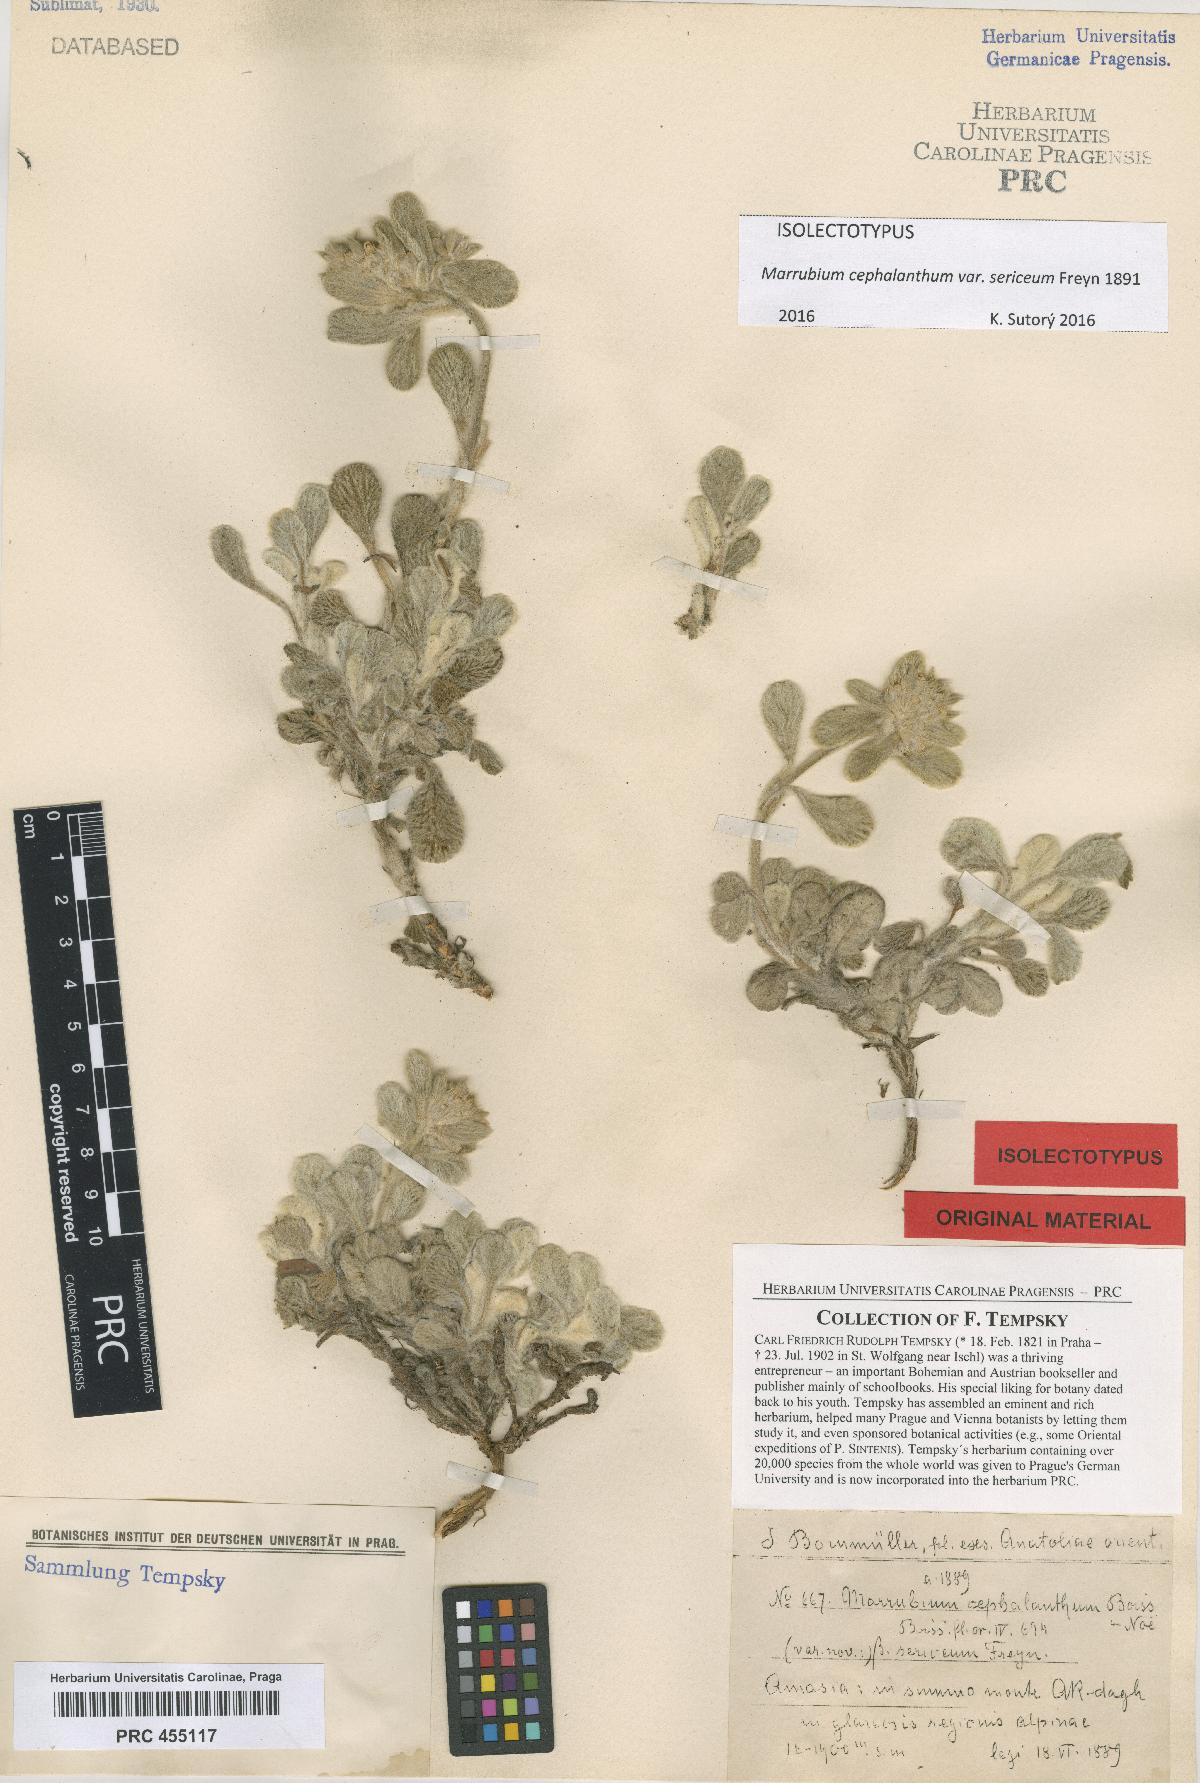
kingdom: Plantae
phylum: Tracheophyta
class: Magnoliopsida
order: Lamiales
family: Lamiaceae
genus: Marrubium
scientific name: Marrubium cephalanthum
